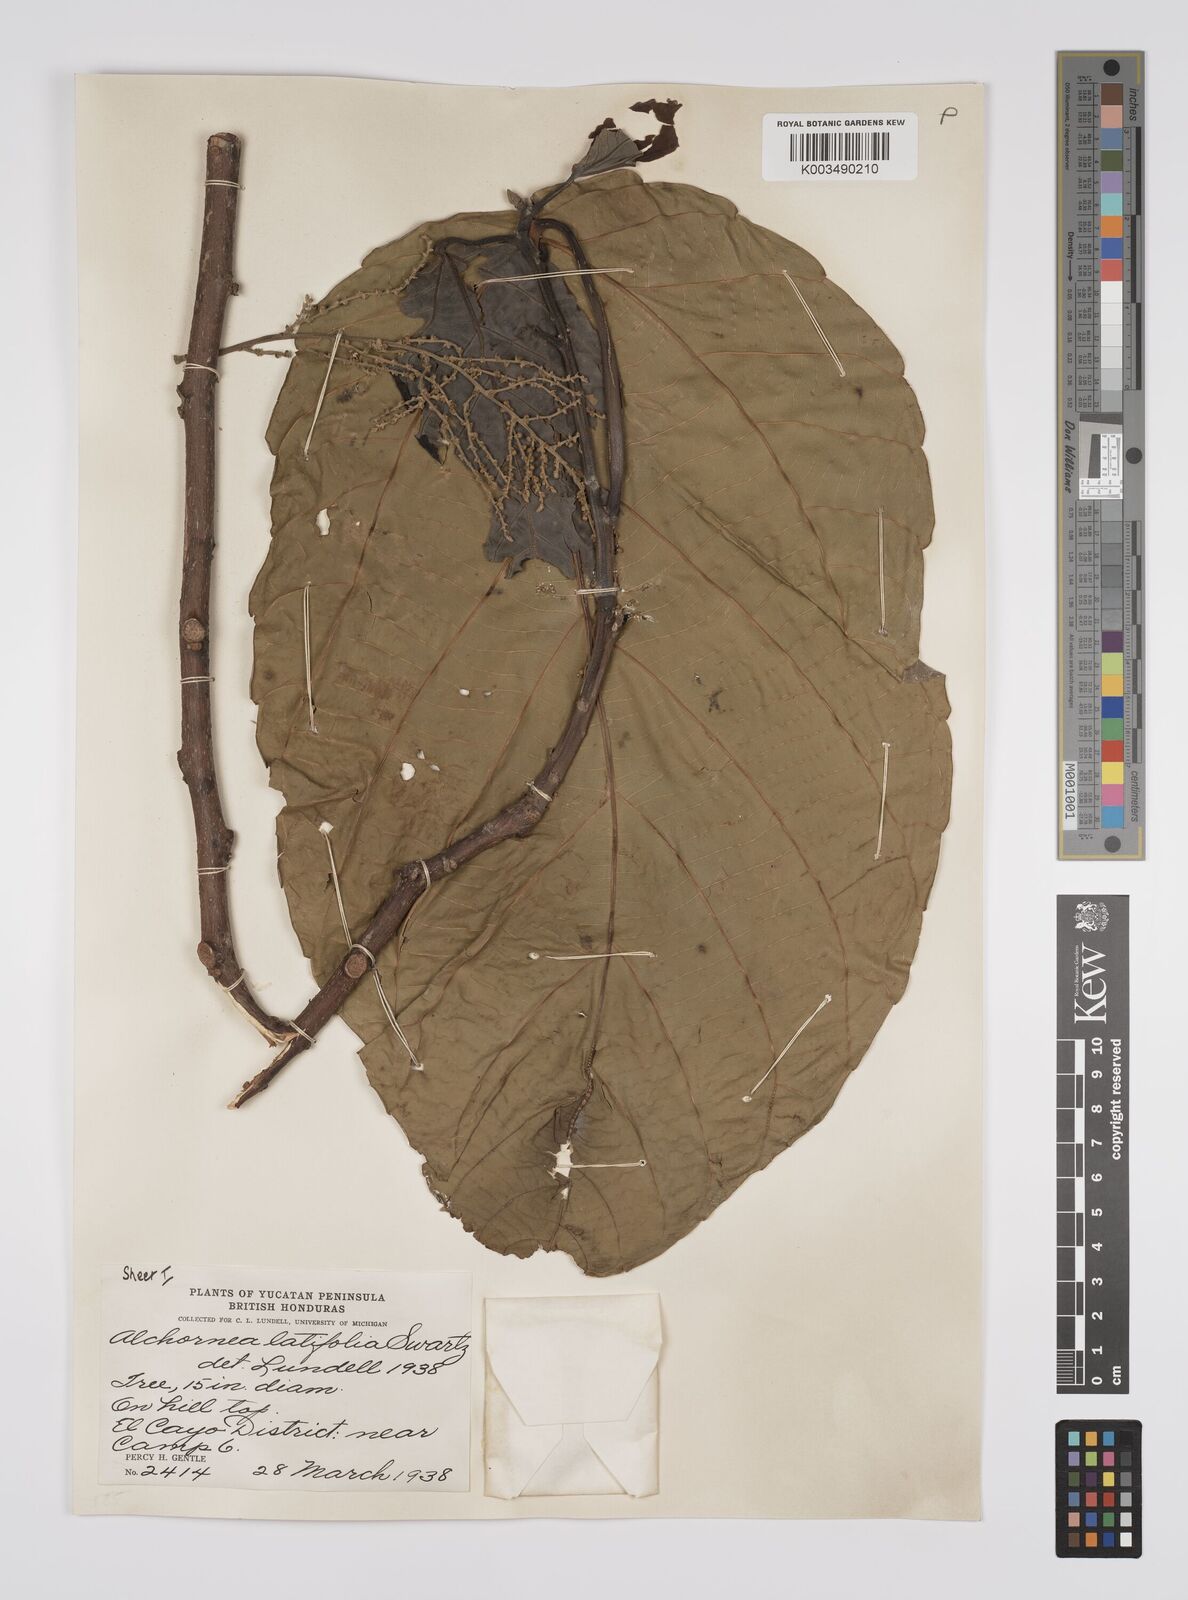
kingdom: Plantae
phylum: Tracheophyta
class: Magnoliopsida
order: Malpighiales
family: Euphorbiaceae
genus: Alchornea
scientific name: Alchornea latifolia
